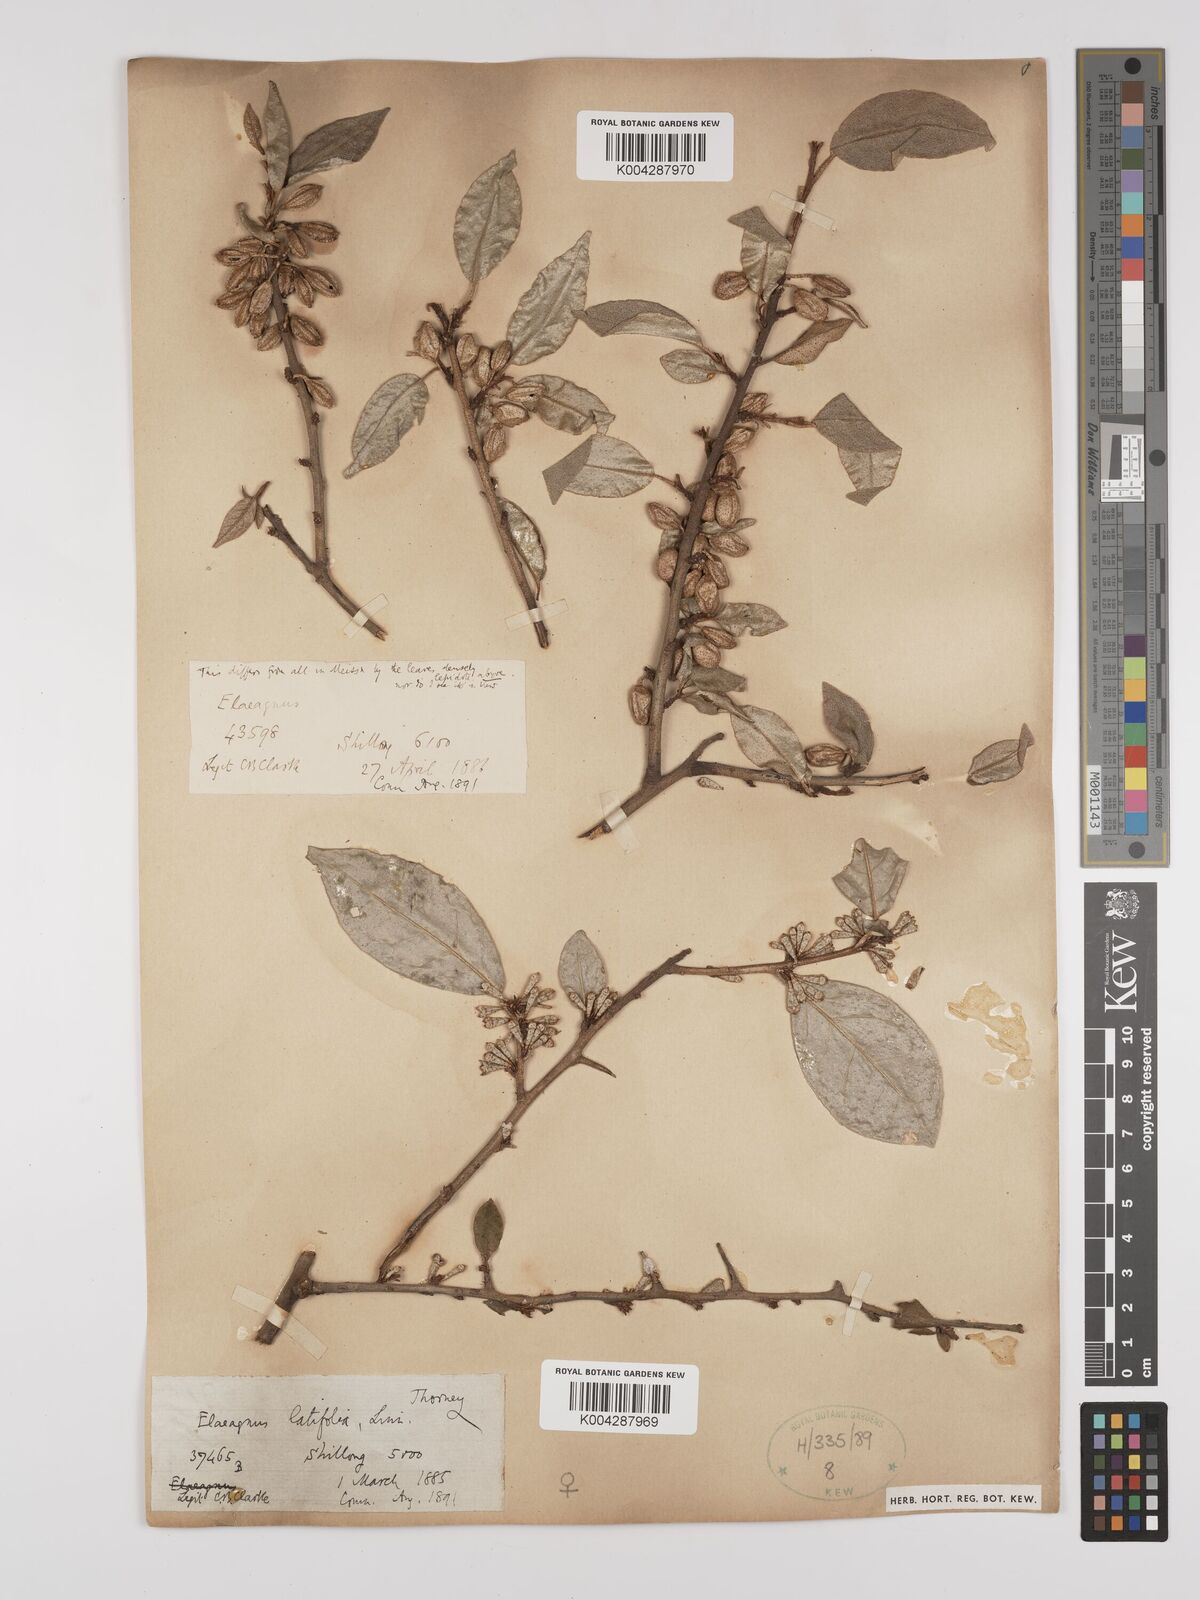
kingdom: Plantae
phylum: Tracheophyta
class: Magnoliopsida
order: Rosales
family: Elaeagnaceae
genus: Elaeagnus
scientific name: Elaeagnus latifolia
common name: Oleaster
